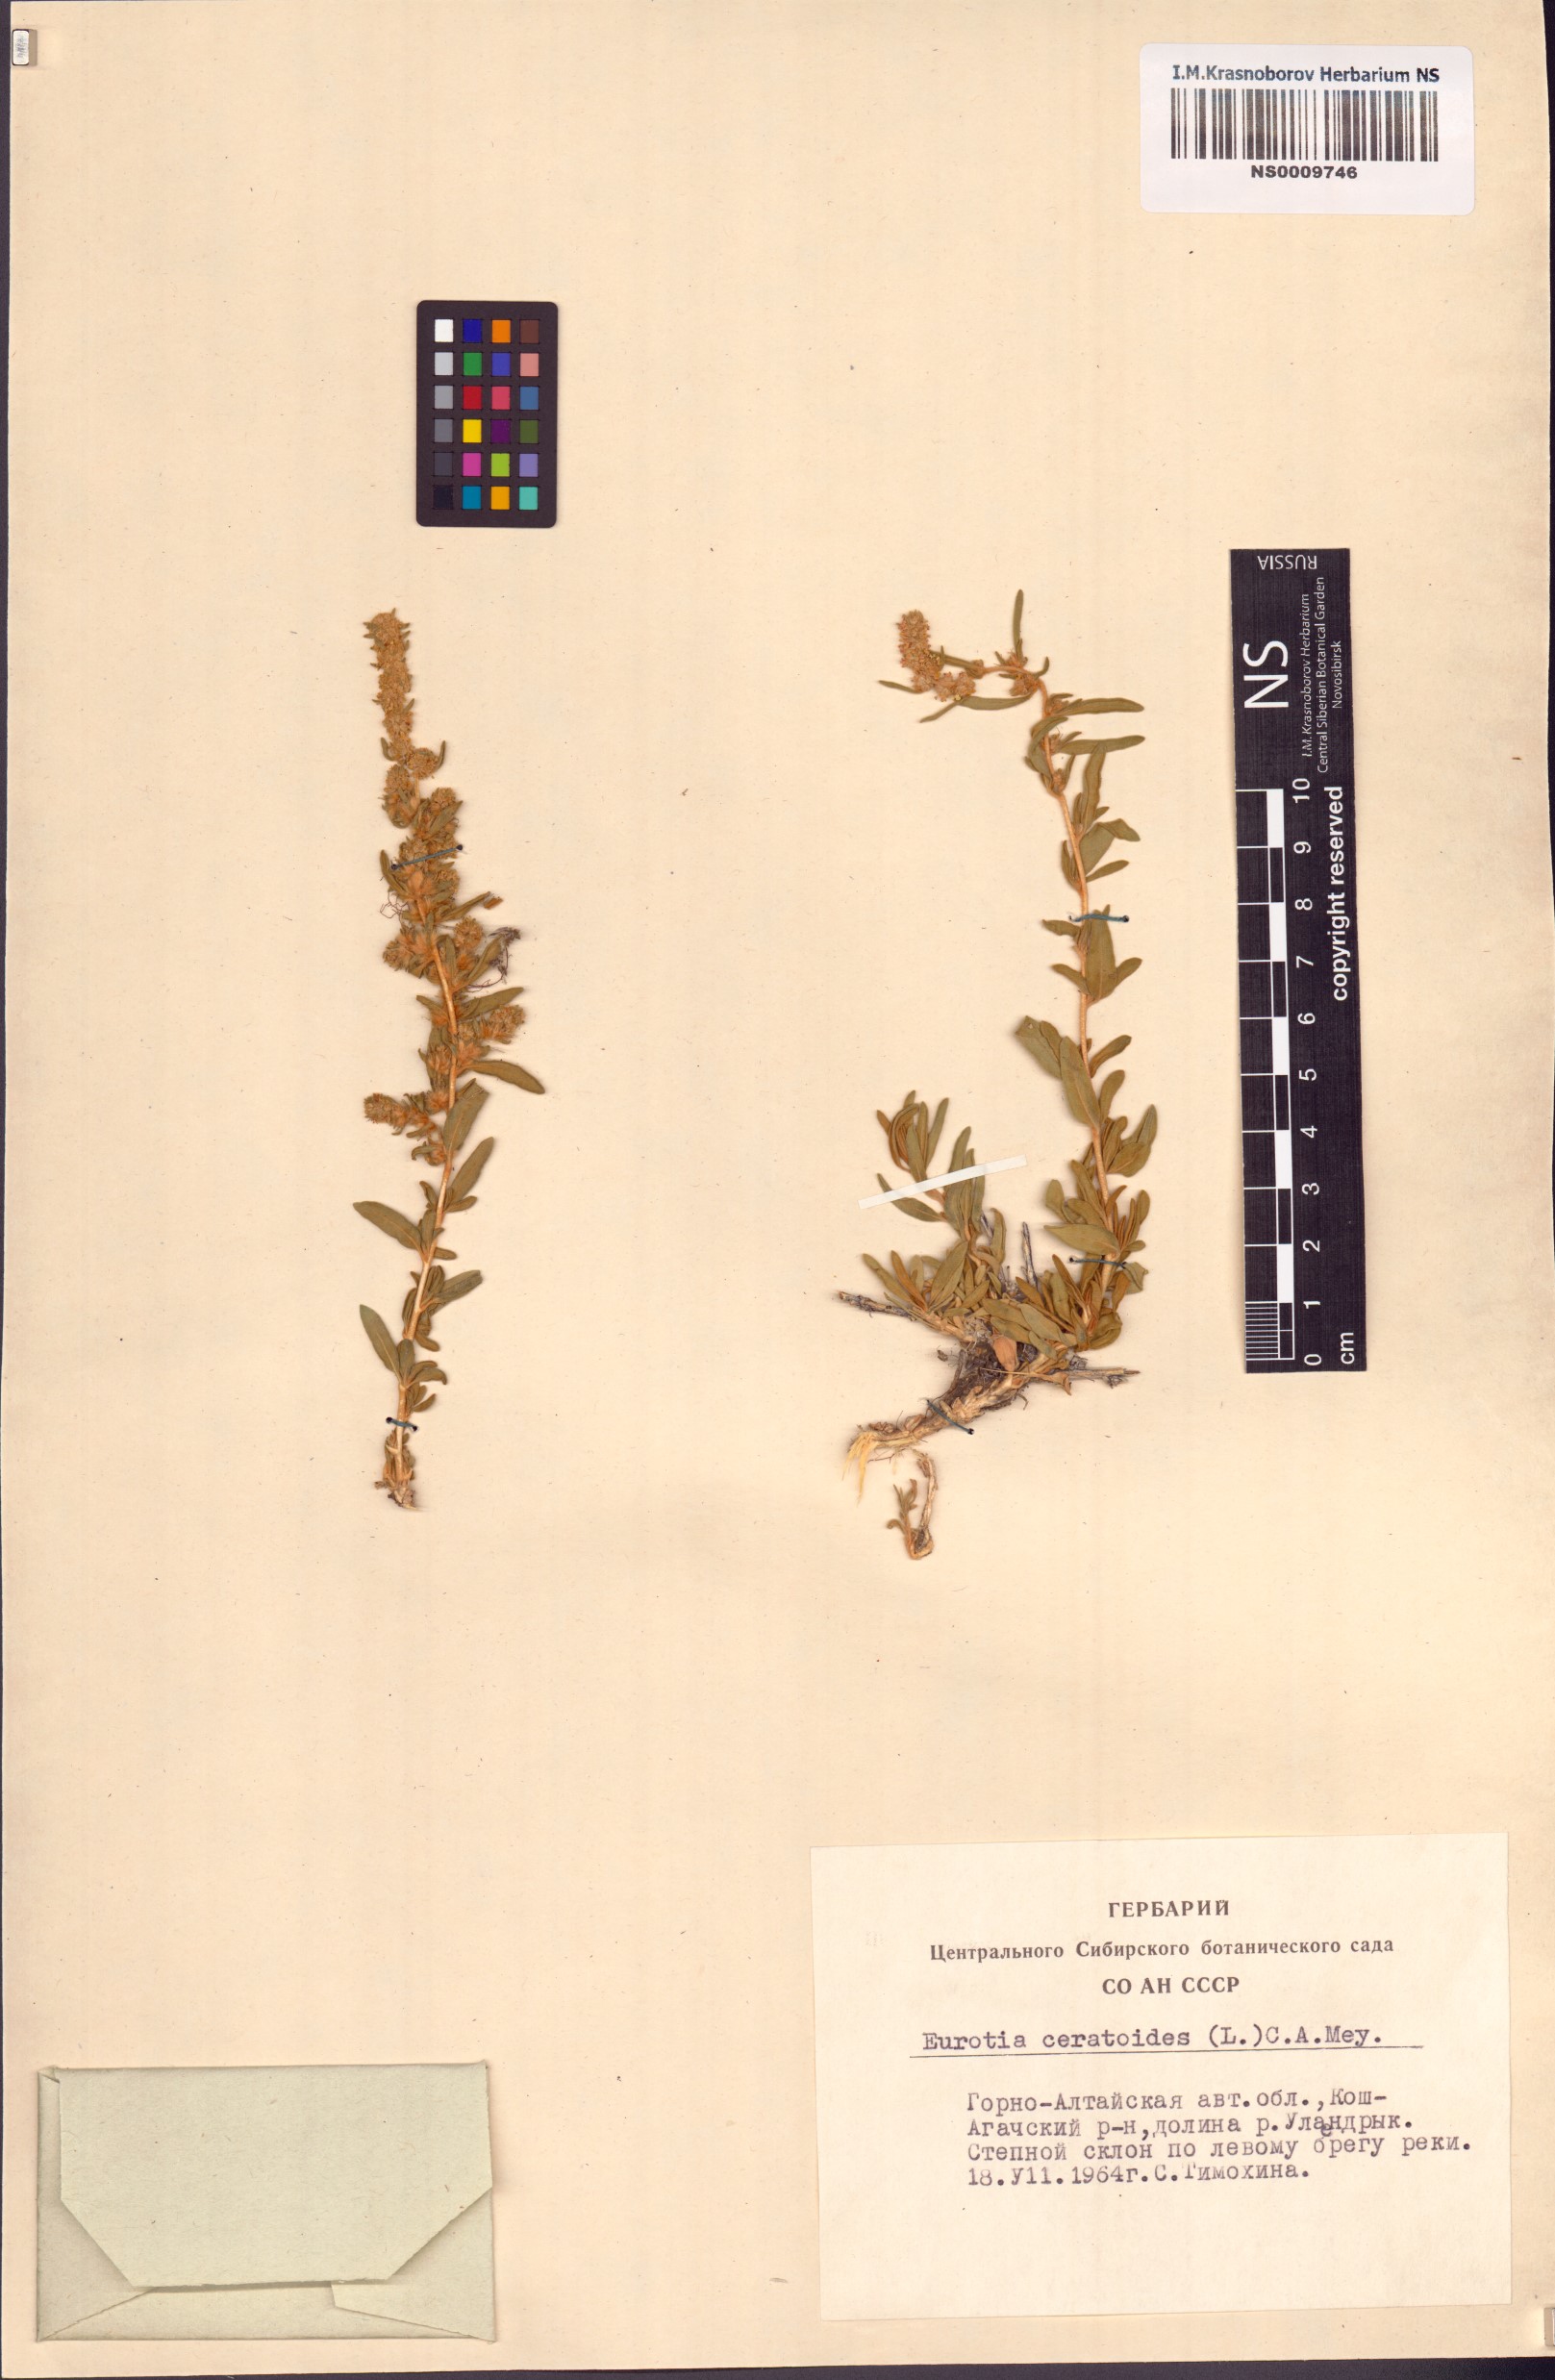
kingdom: Plantae
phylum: Tracheophyta
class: Magnoliopsida
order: Caryophyllales
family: Amaranthaceae
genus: Krascheninnikovia
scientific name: Krascheninnikovia ceratoides
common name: Pamirian winterfat
